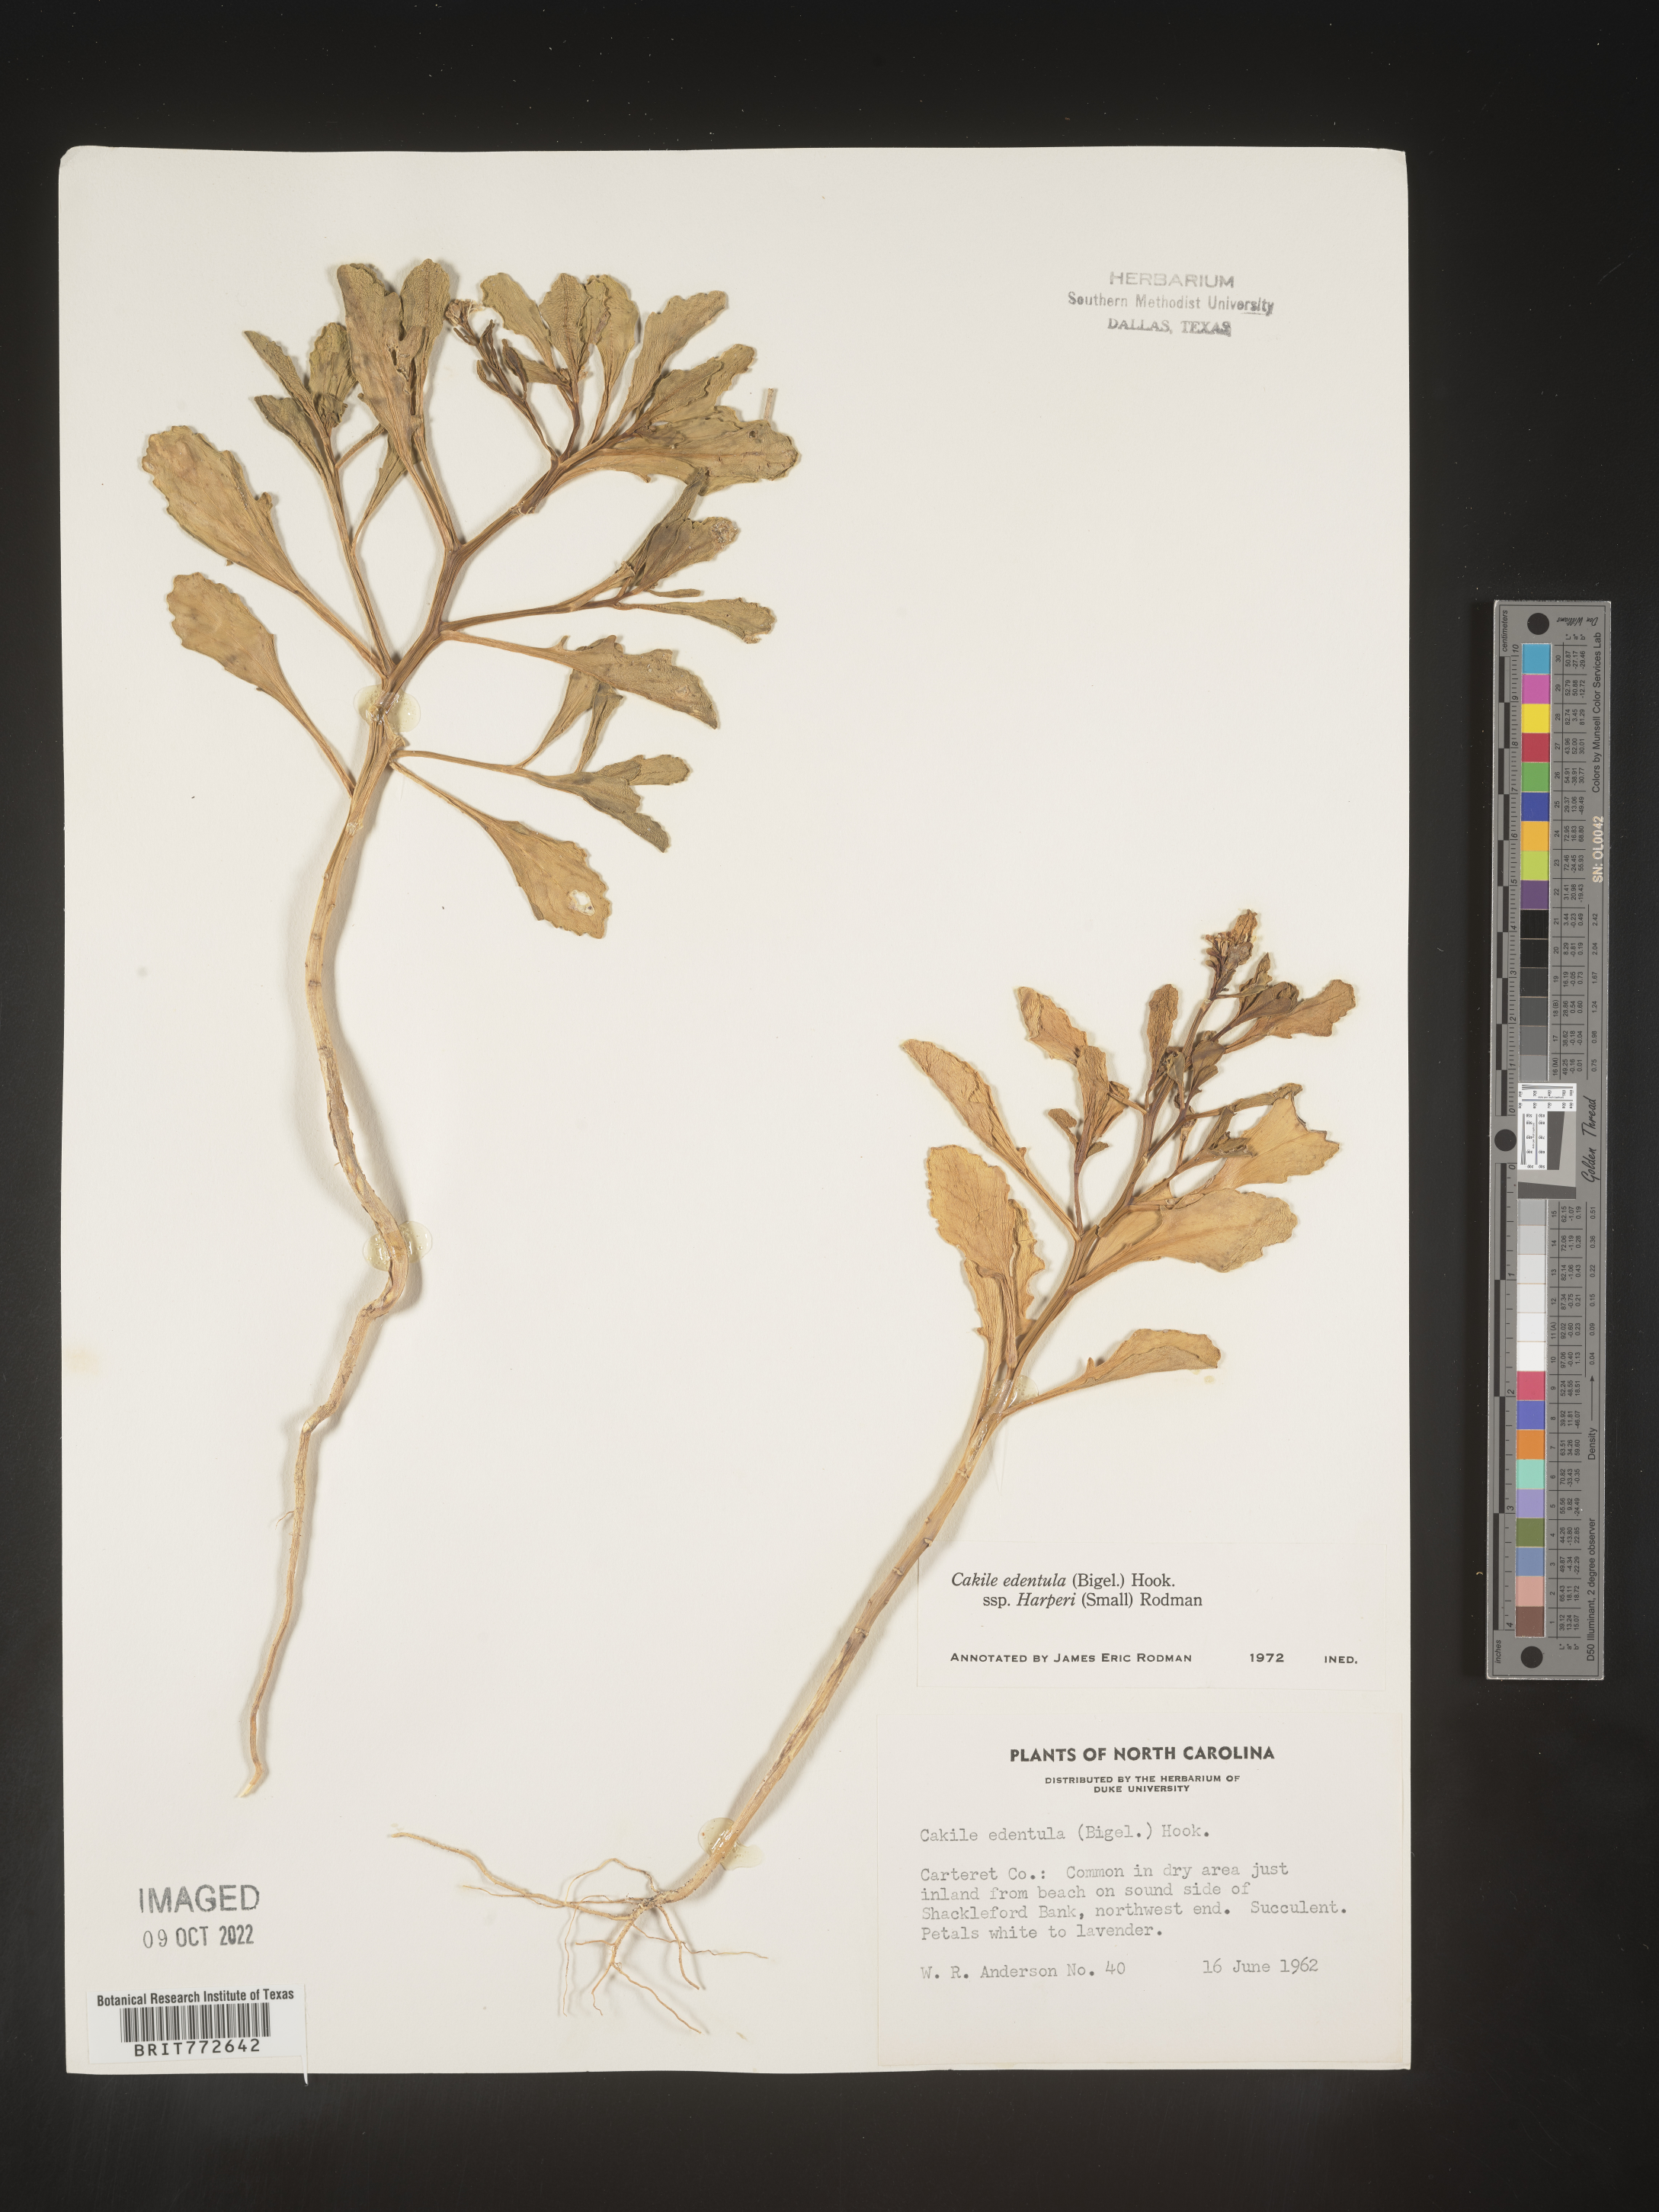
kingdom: Plantae
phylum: Tracheophyta
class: Magnoliopsida
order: Brassicales
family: Brassicaceae
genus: Cakile
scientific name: Cakile edentula
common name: American sea rocket
